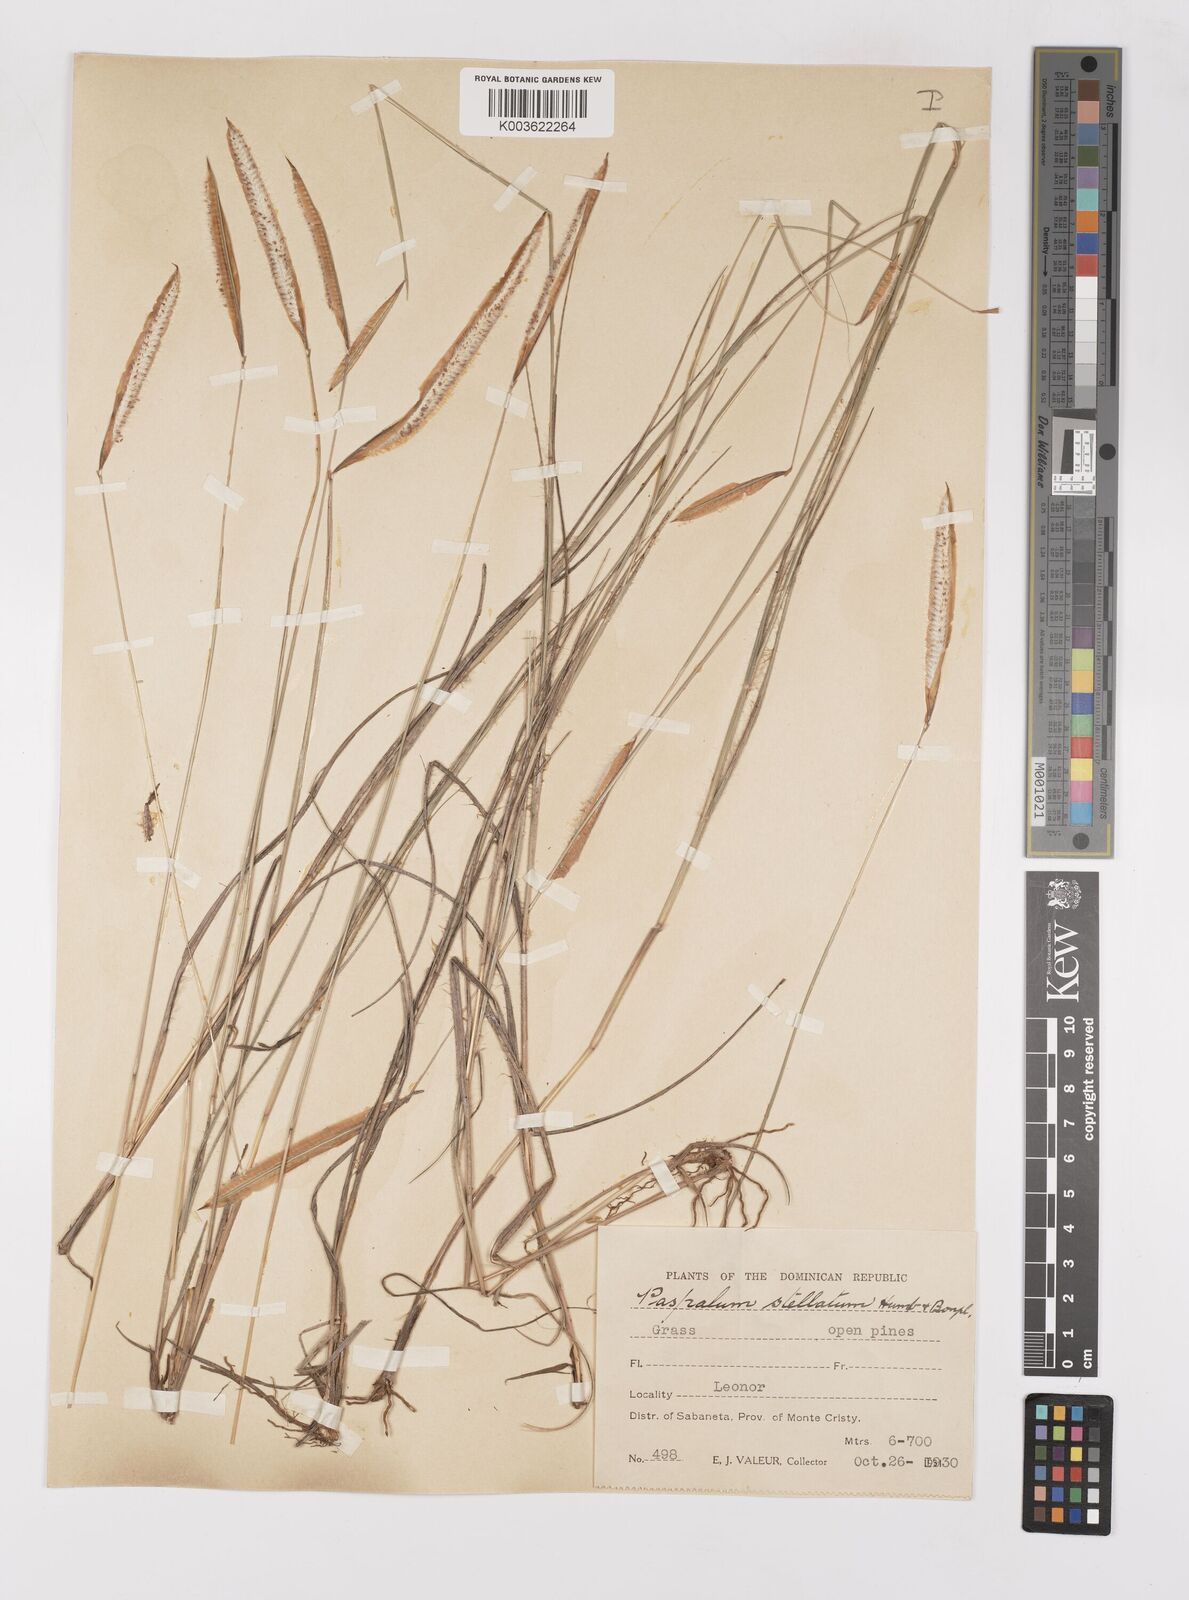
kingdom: Plantae
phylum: Tracheophyta
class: Liliopsida
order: Poales
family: Poaceae
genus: Paspalum
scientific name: Paspalum stellatum
